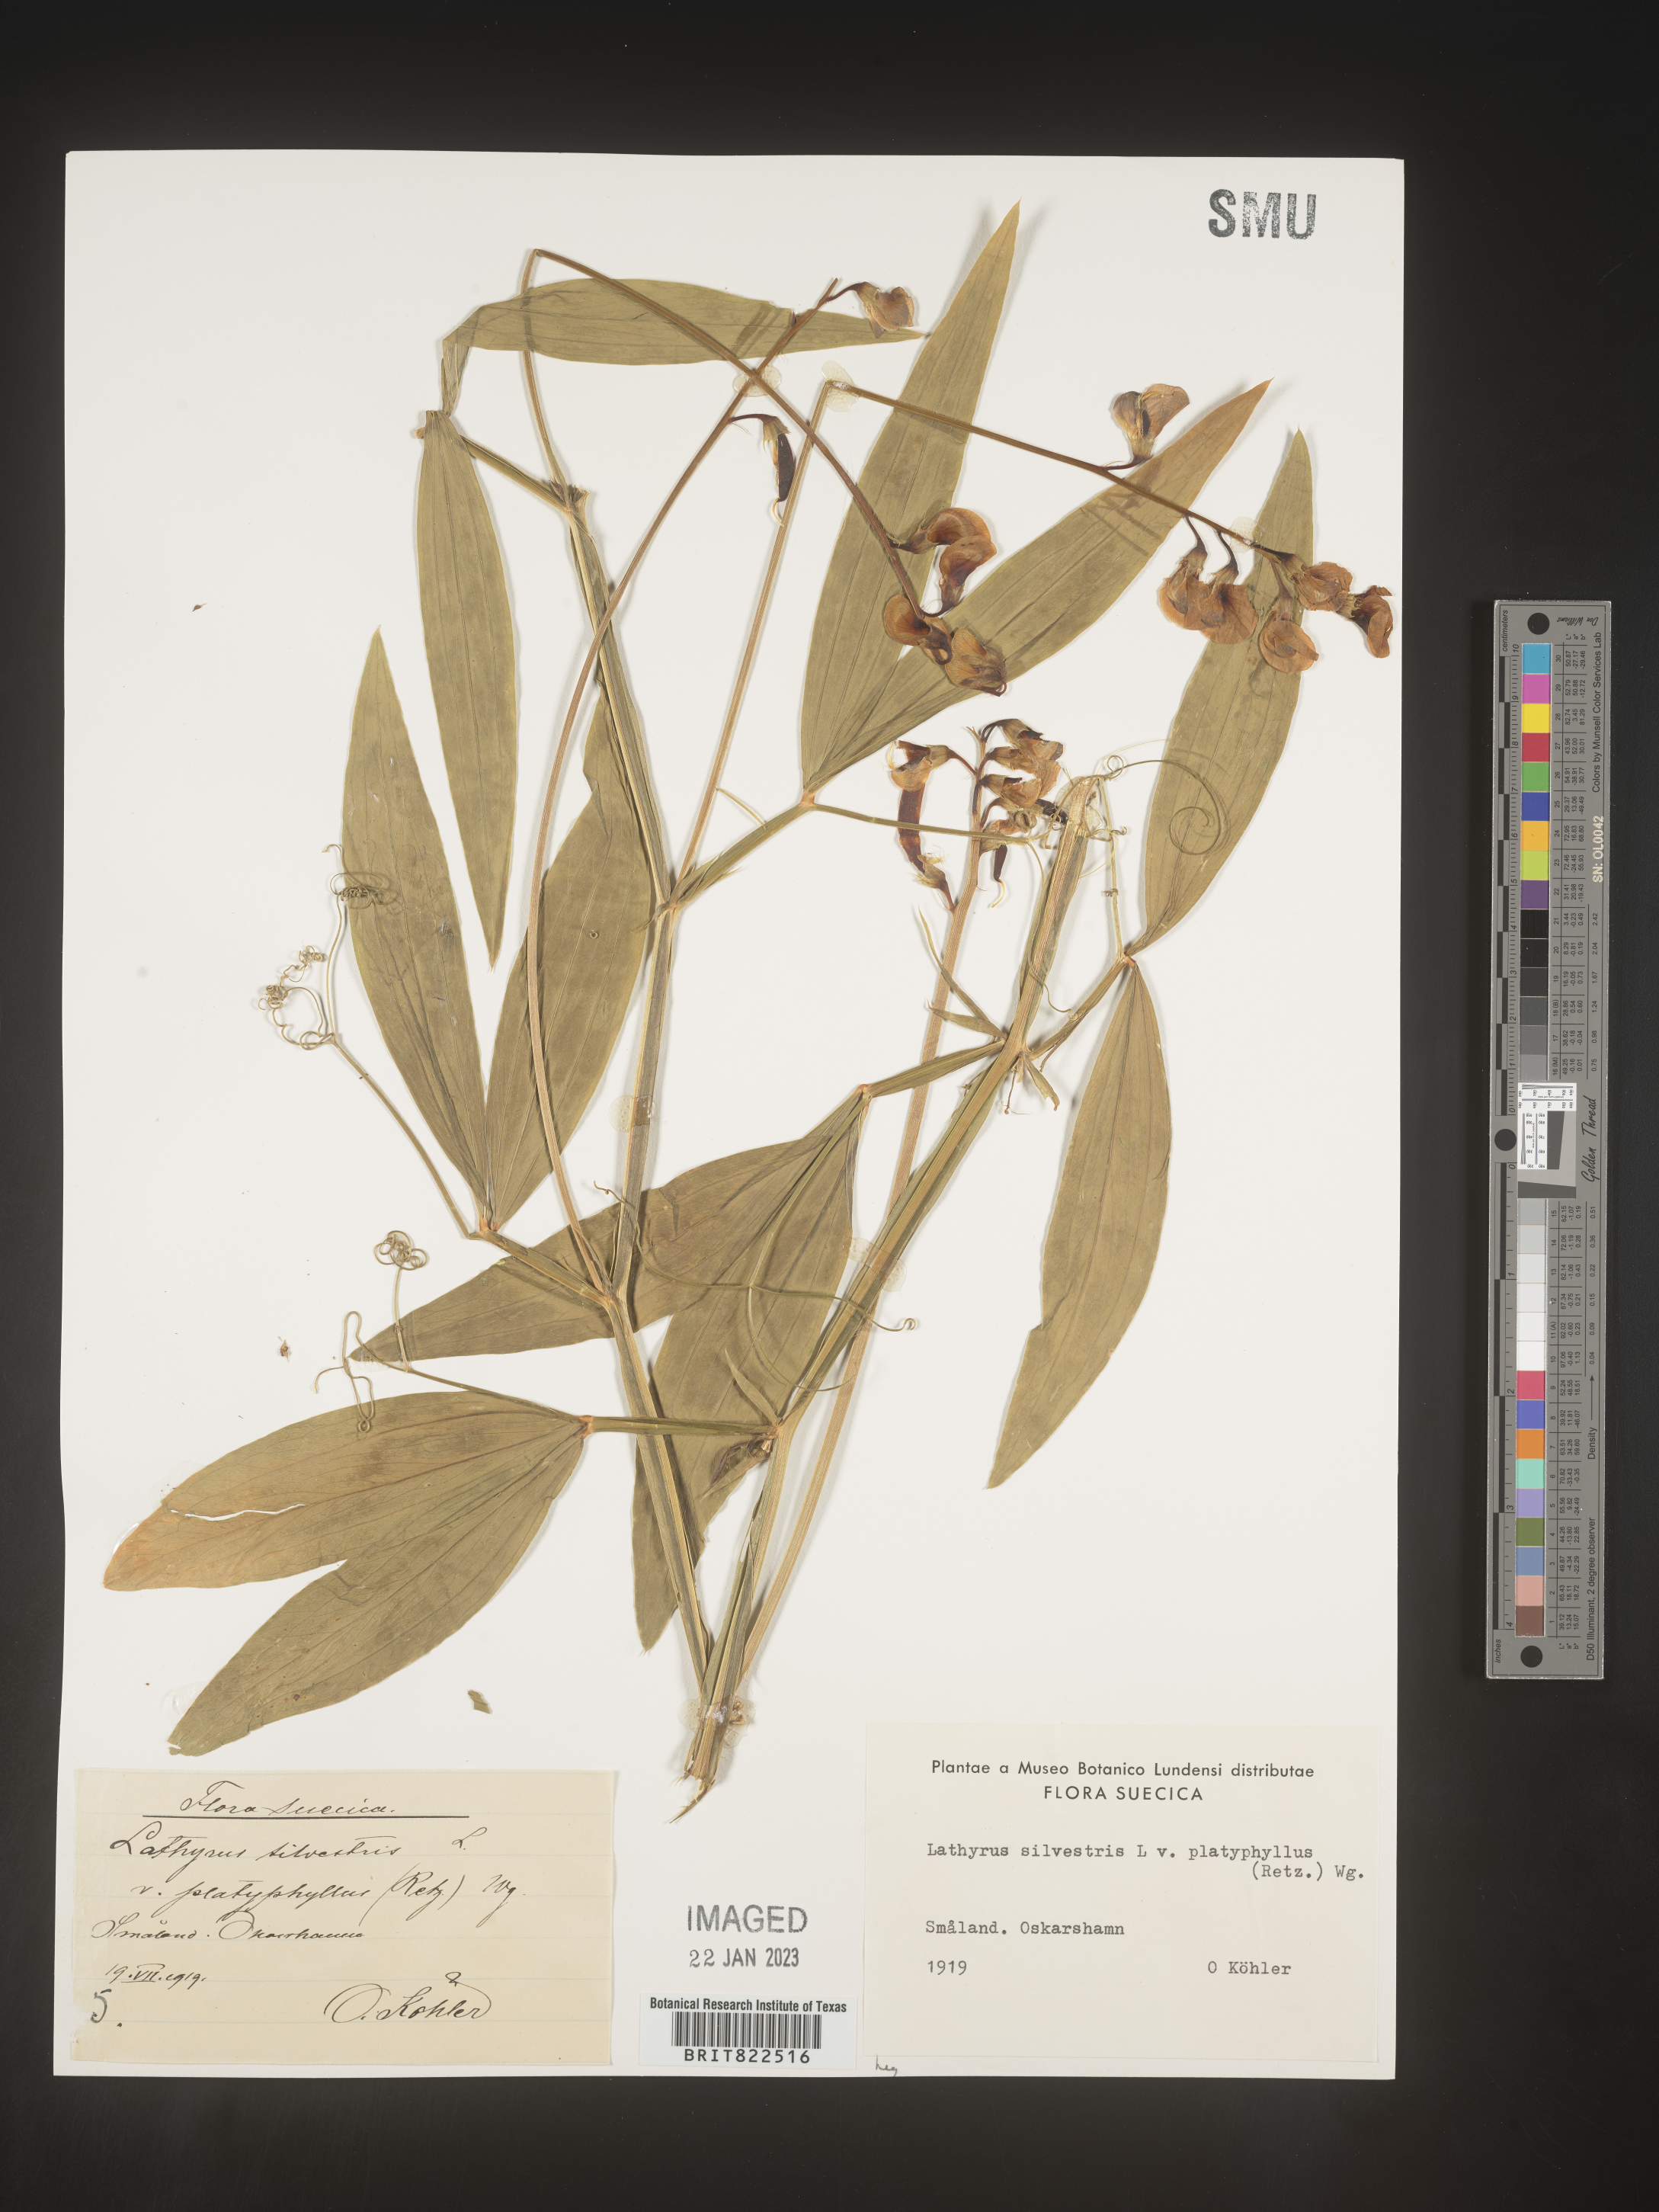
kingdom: Plantae
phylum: Tracheophyta
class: Magnoliopsida
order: Fabales
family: Fabaceae
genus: Lathyrus
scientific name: Lathyrus
